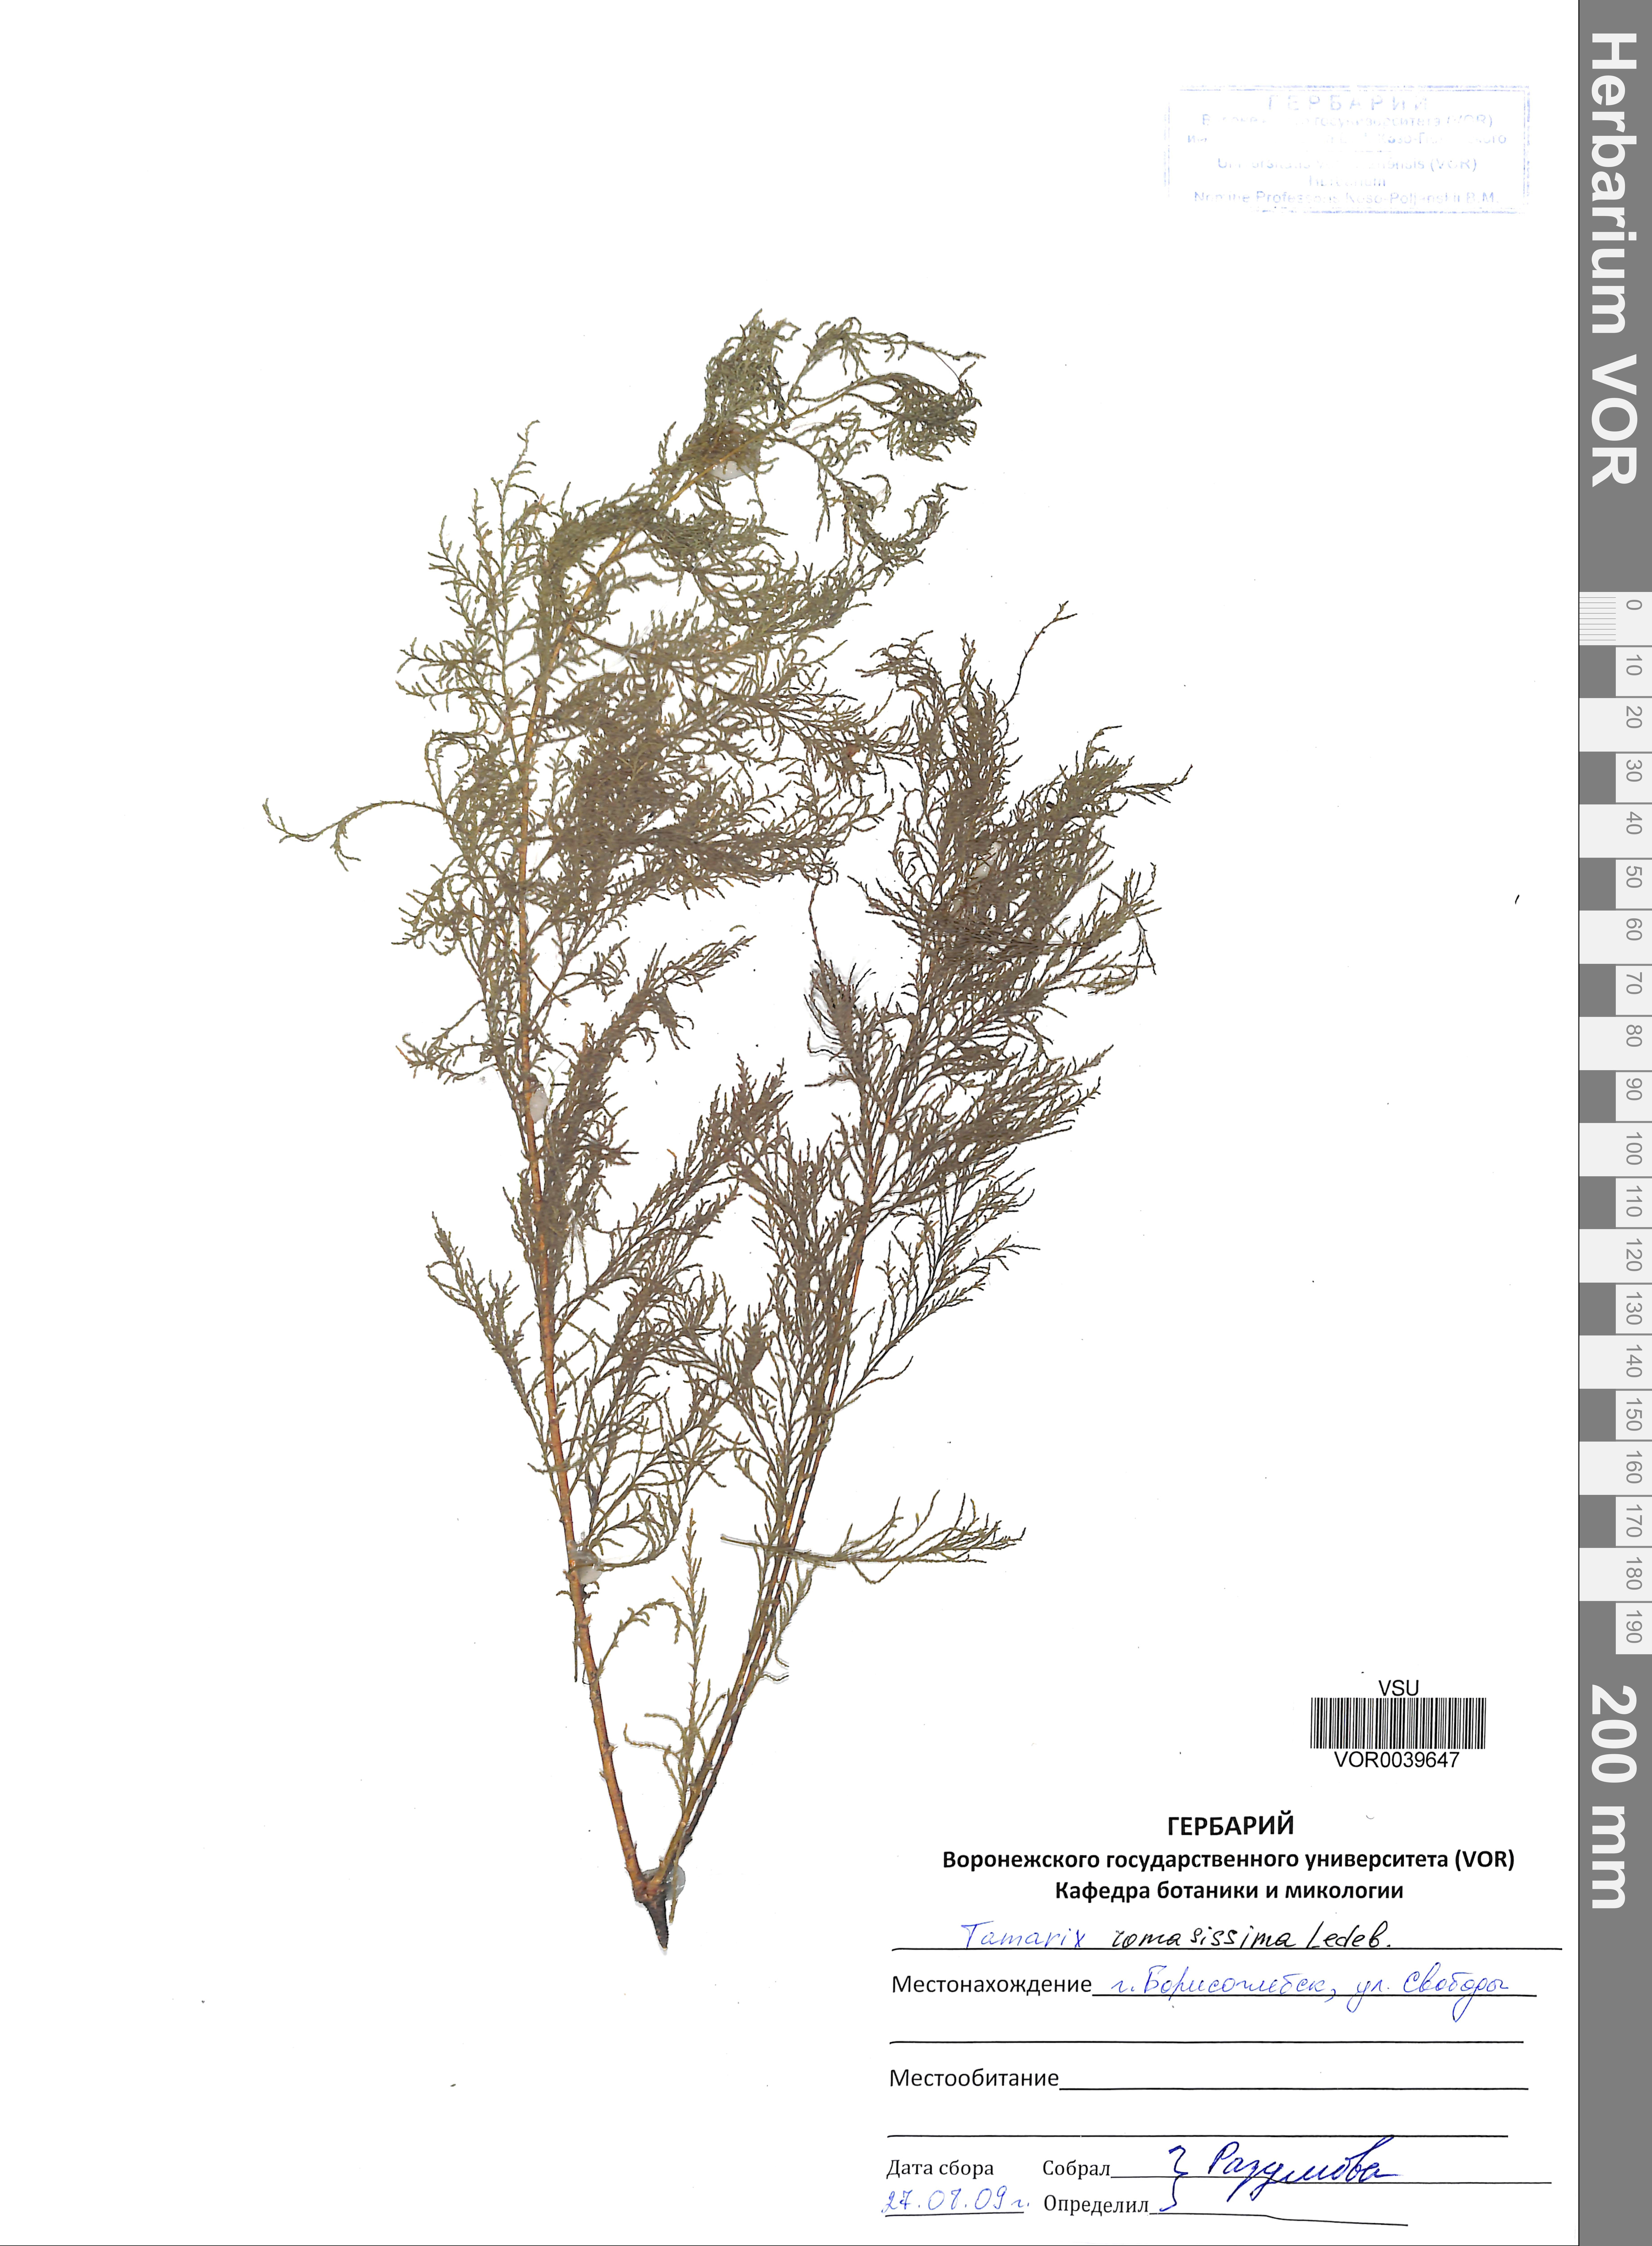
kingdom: Plantae
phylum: Tracheophyta
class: Magnoliopsida
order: Caryophyllales
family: Tamaricaceae
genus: Tamarix
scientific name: Tamarix ramosissima
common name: Pink tamarisk
